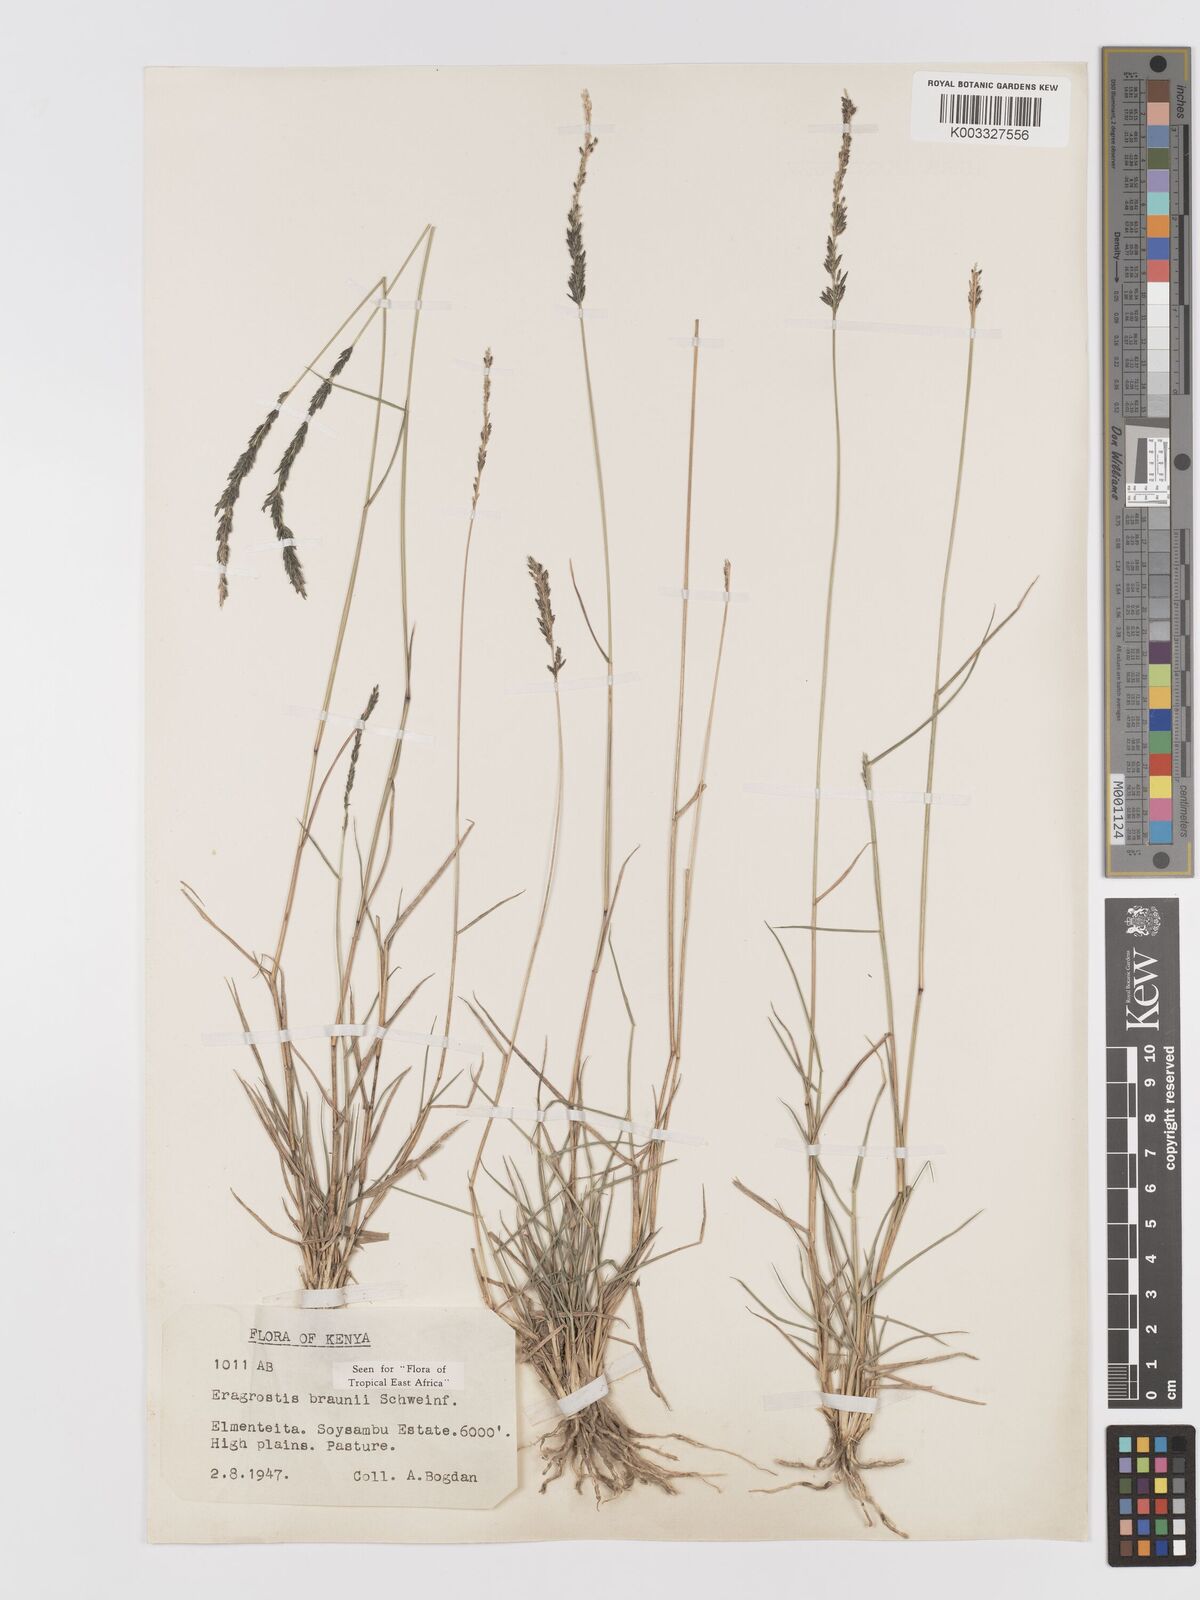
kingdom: Plantae
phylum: Tracheophyta
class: Liliopsida
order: Poales
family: Poaceae
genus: Eragrostis
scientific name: Eragrostis braunii
